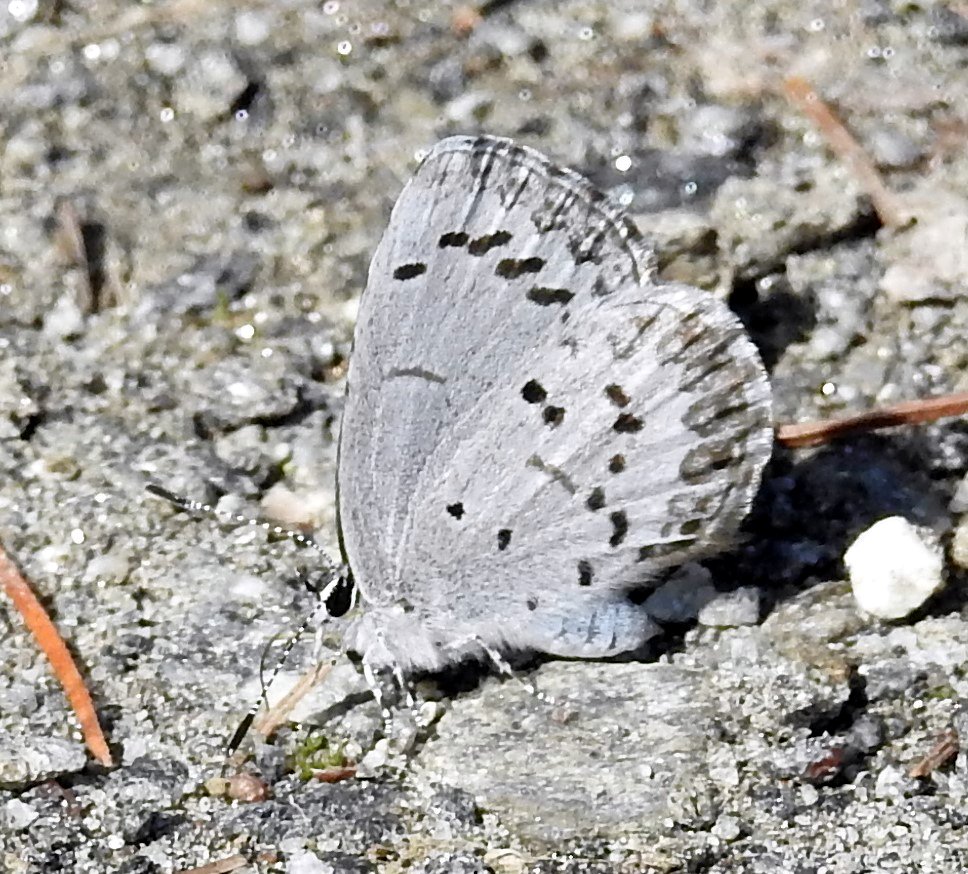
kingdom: Animalia
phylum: Arthropoda
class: Insecta
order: Lepidoptera
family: Lycaenidae
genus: Celastrina
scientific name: Celastrina
